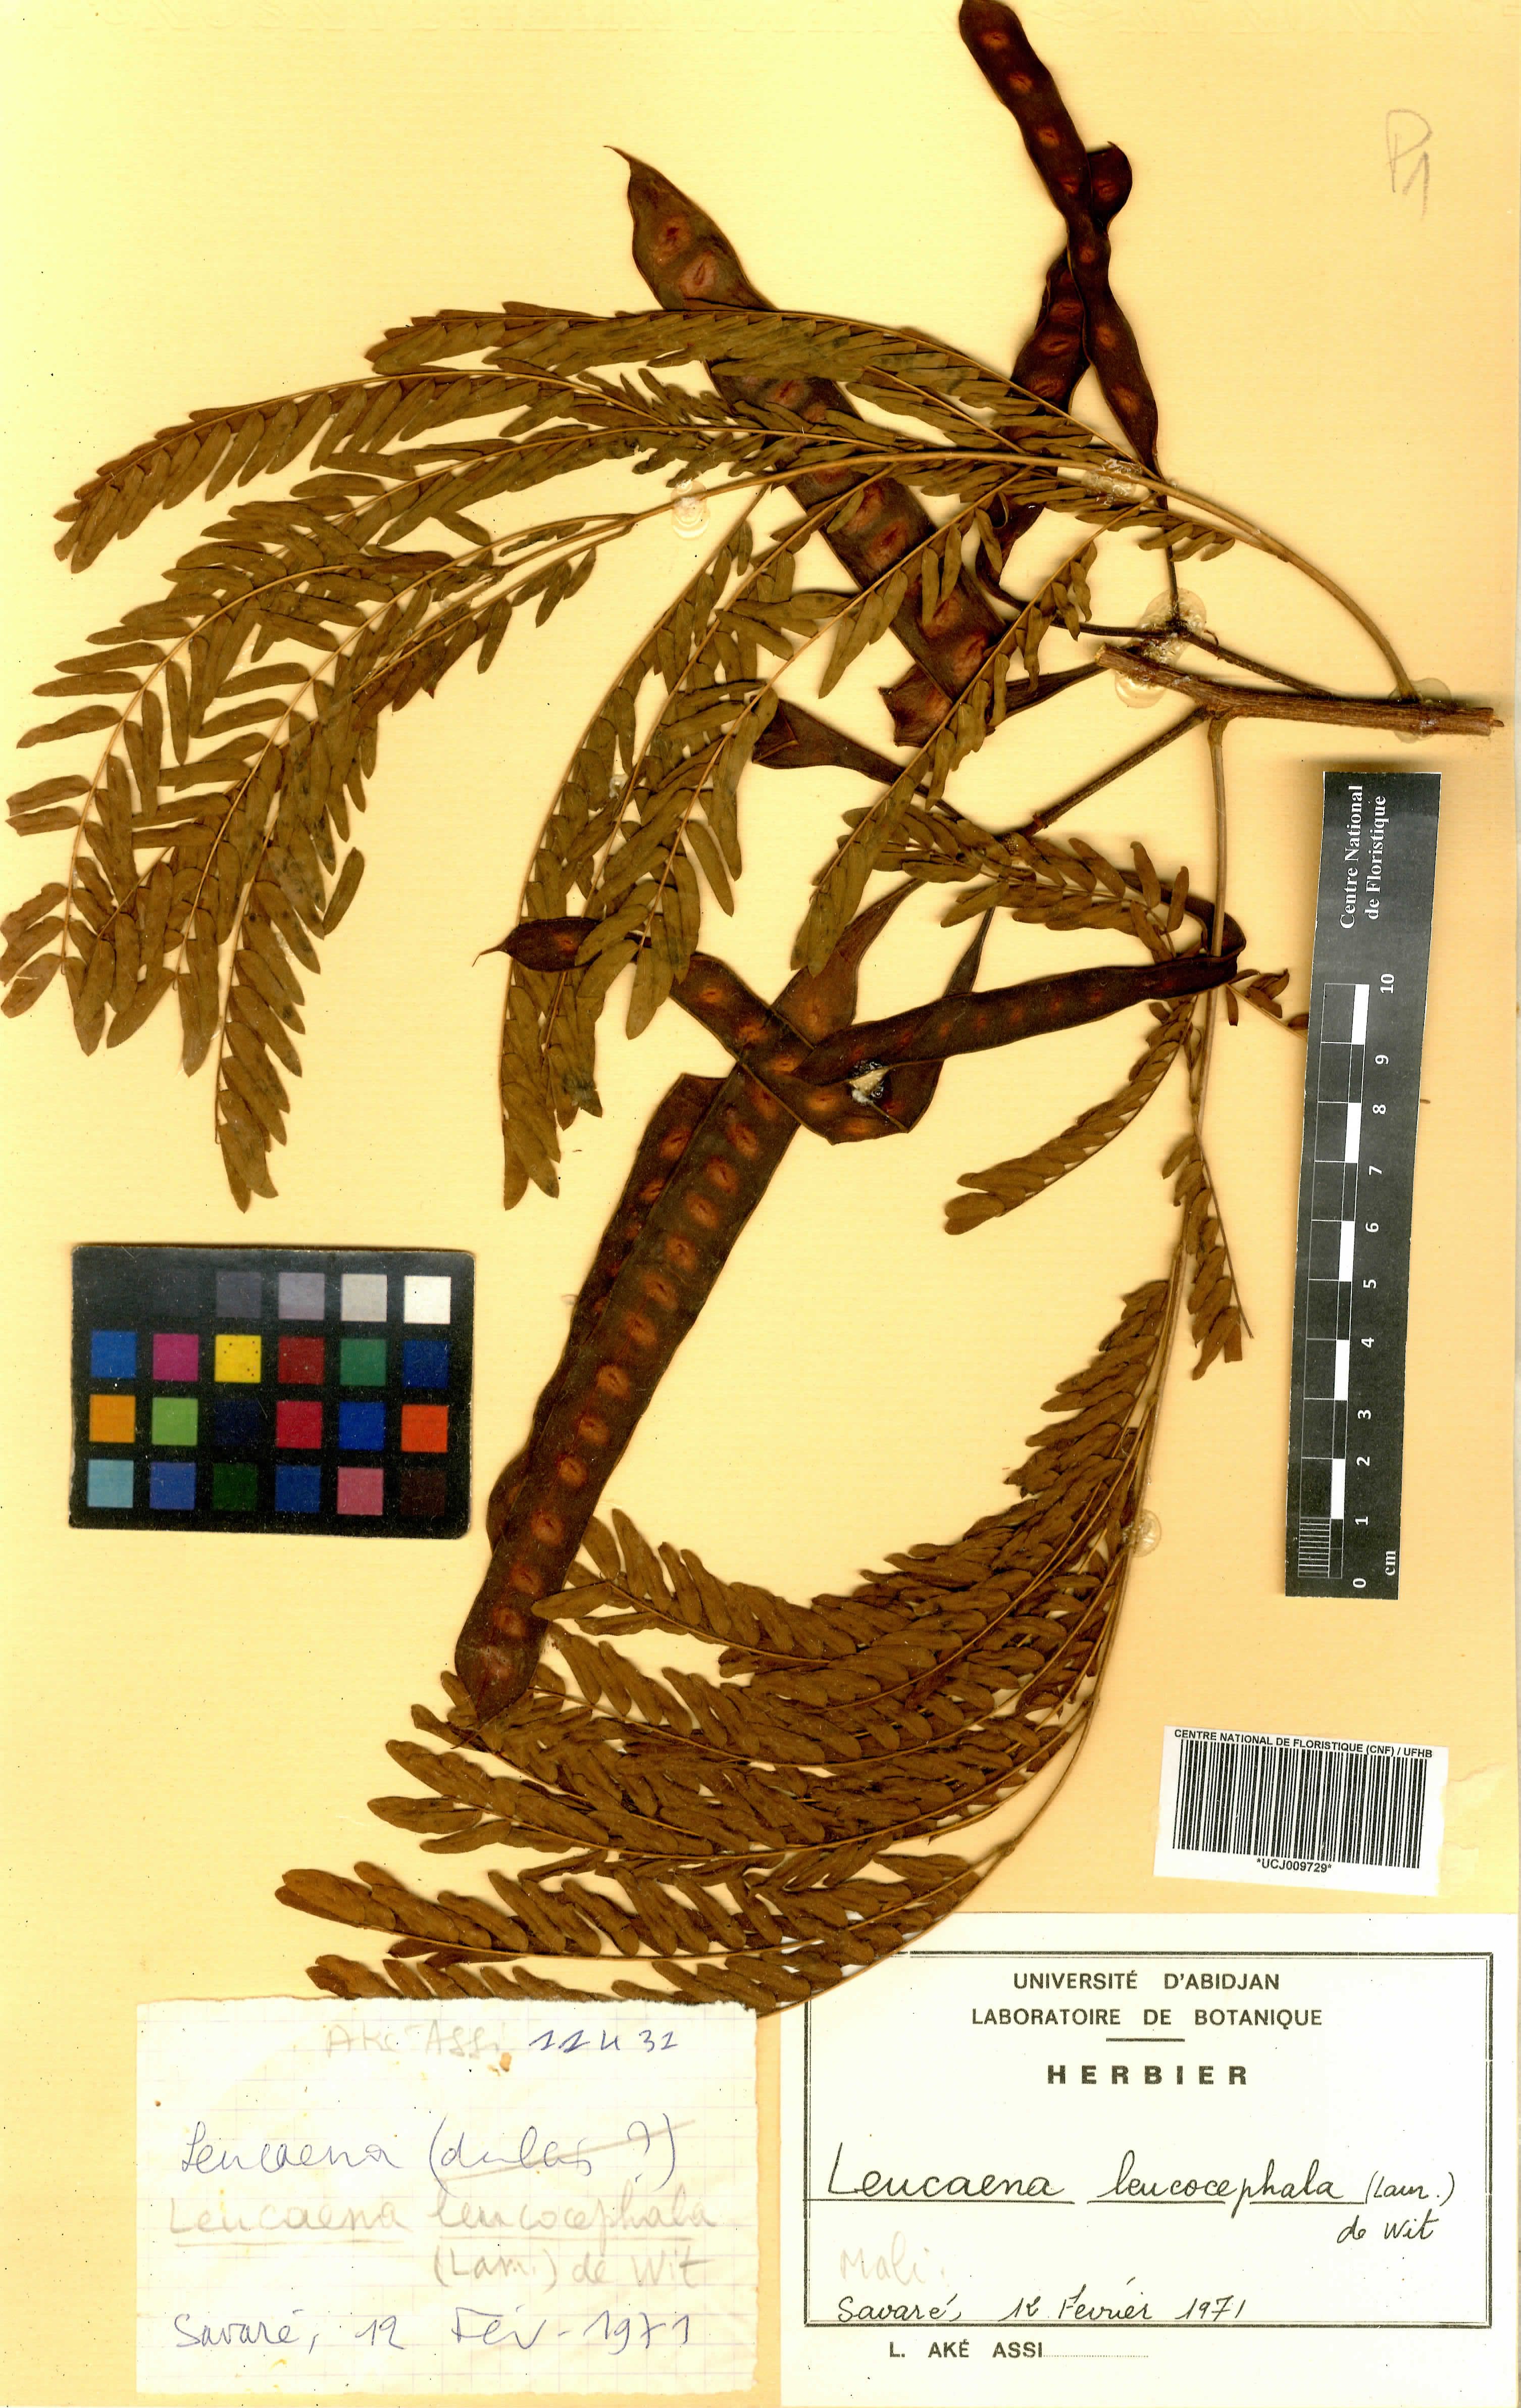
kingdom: Plantae
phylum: Tracheophyta
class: Magnoliopsida
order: Fabales
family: Fabaceae
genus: Leucaena
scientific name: Leucaena leucocephala
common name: White leadtree
